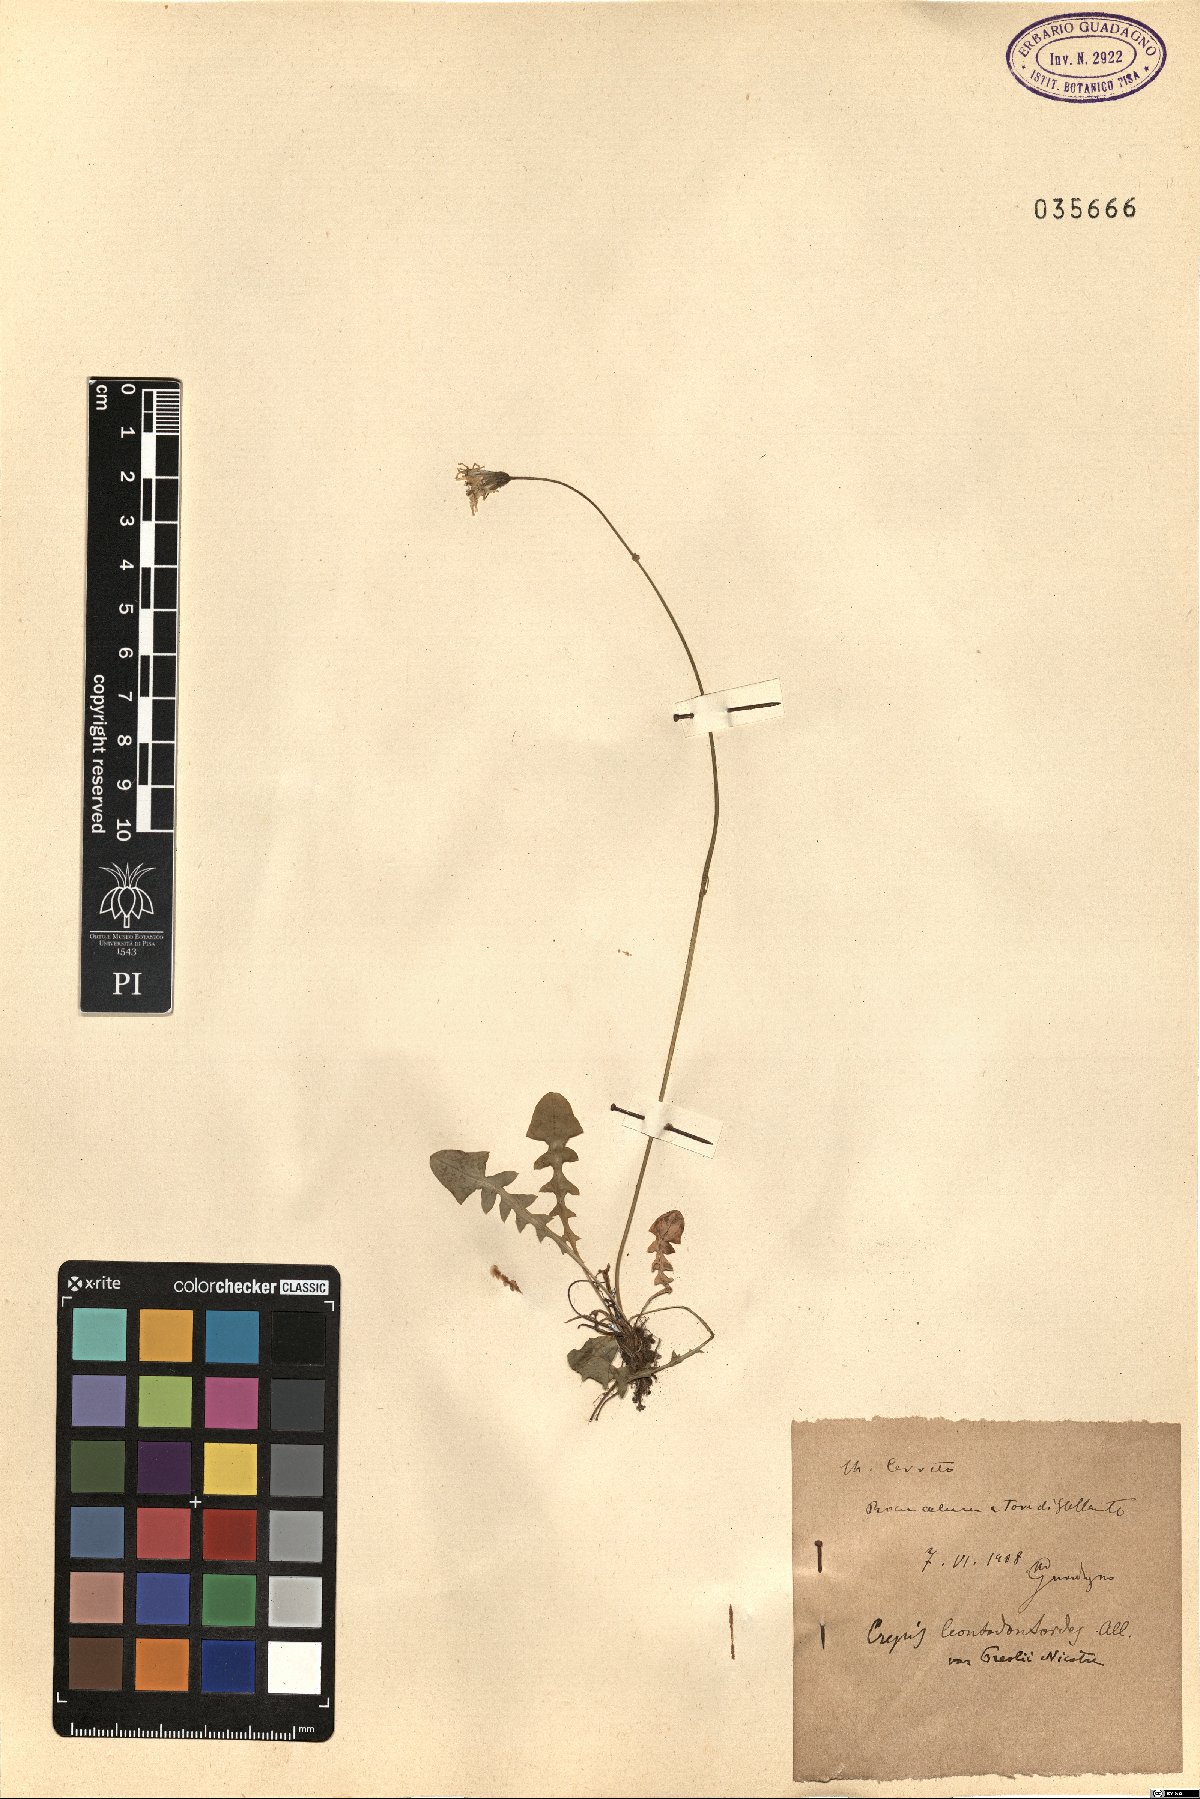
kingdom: Plantae
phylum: Tracheophyta
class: Magnoliopsida
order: Asterales
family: Asteraceae
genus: Crepis
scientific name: Crepis leontodontoides
